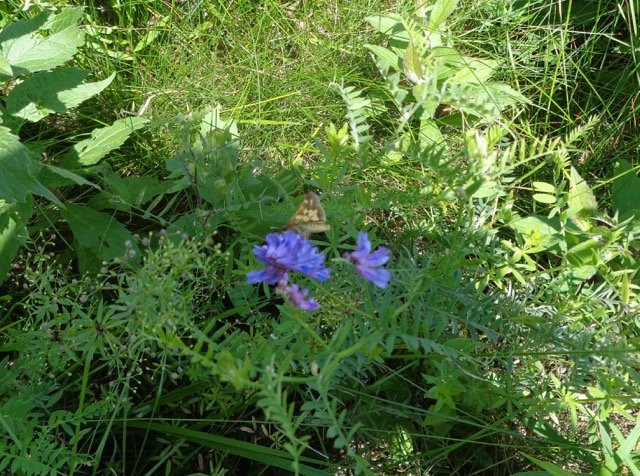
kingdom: Animalia
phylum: Arthropoda
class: Insecta
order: Lepidoptera
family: Hesperiidae
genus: Polites
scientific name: Polites coras
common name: Peck's Skipper
